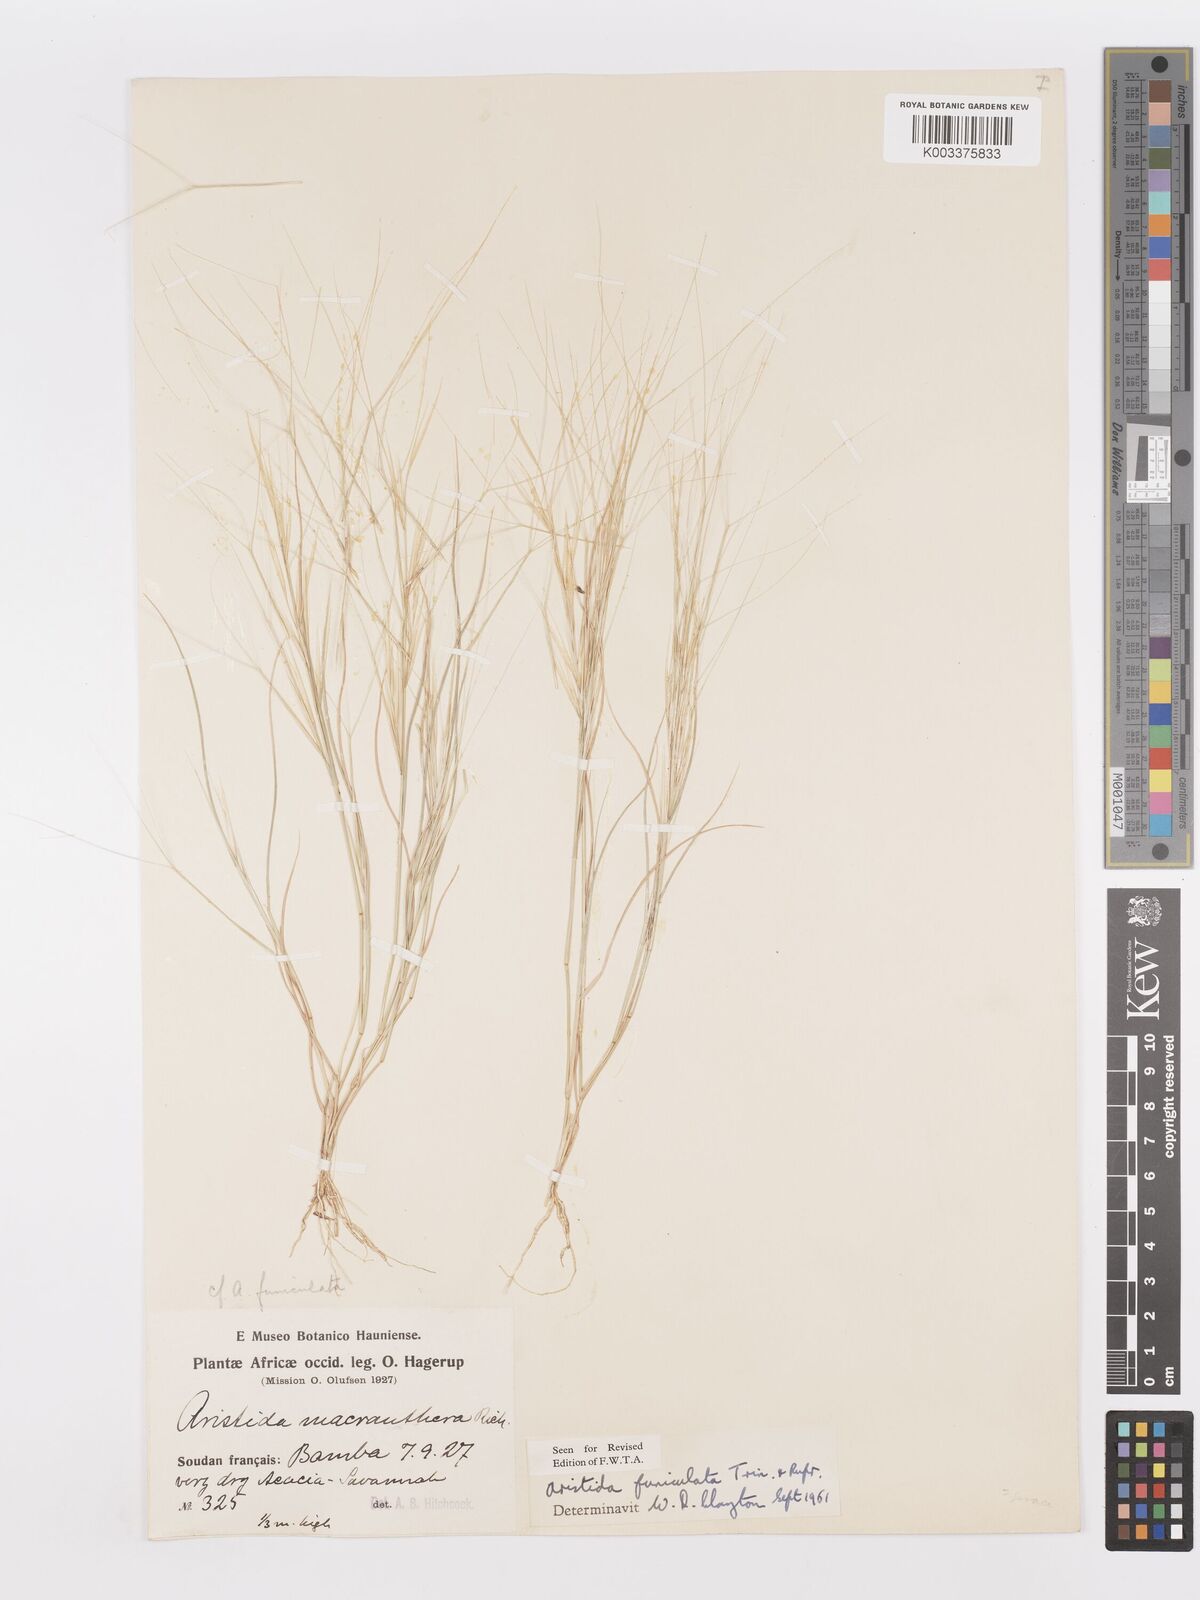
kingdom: Plantae
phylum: Tracheophyta
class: Liliopsida
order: Poales
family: Poaceae
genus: Aristida
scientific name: Aristida funiculata
